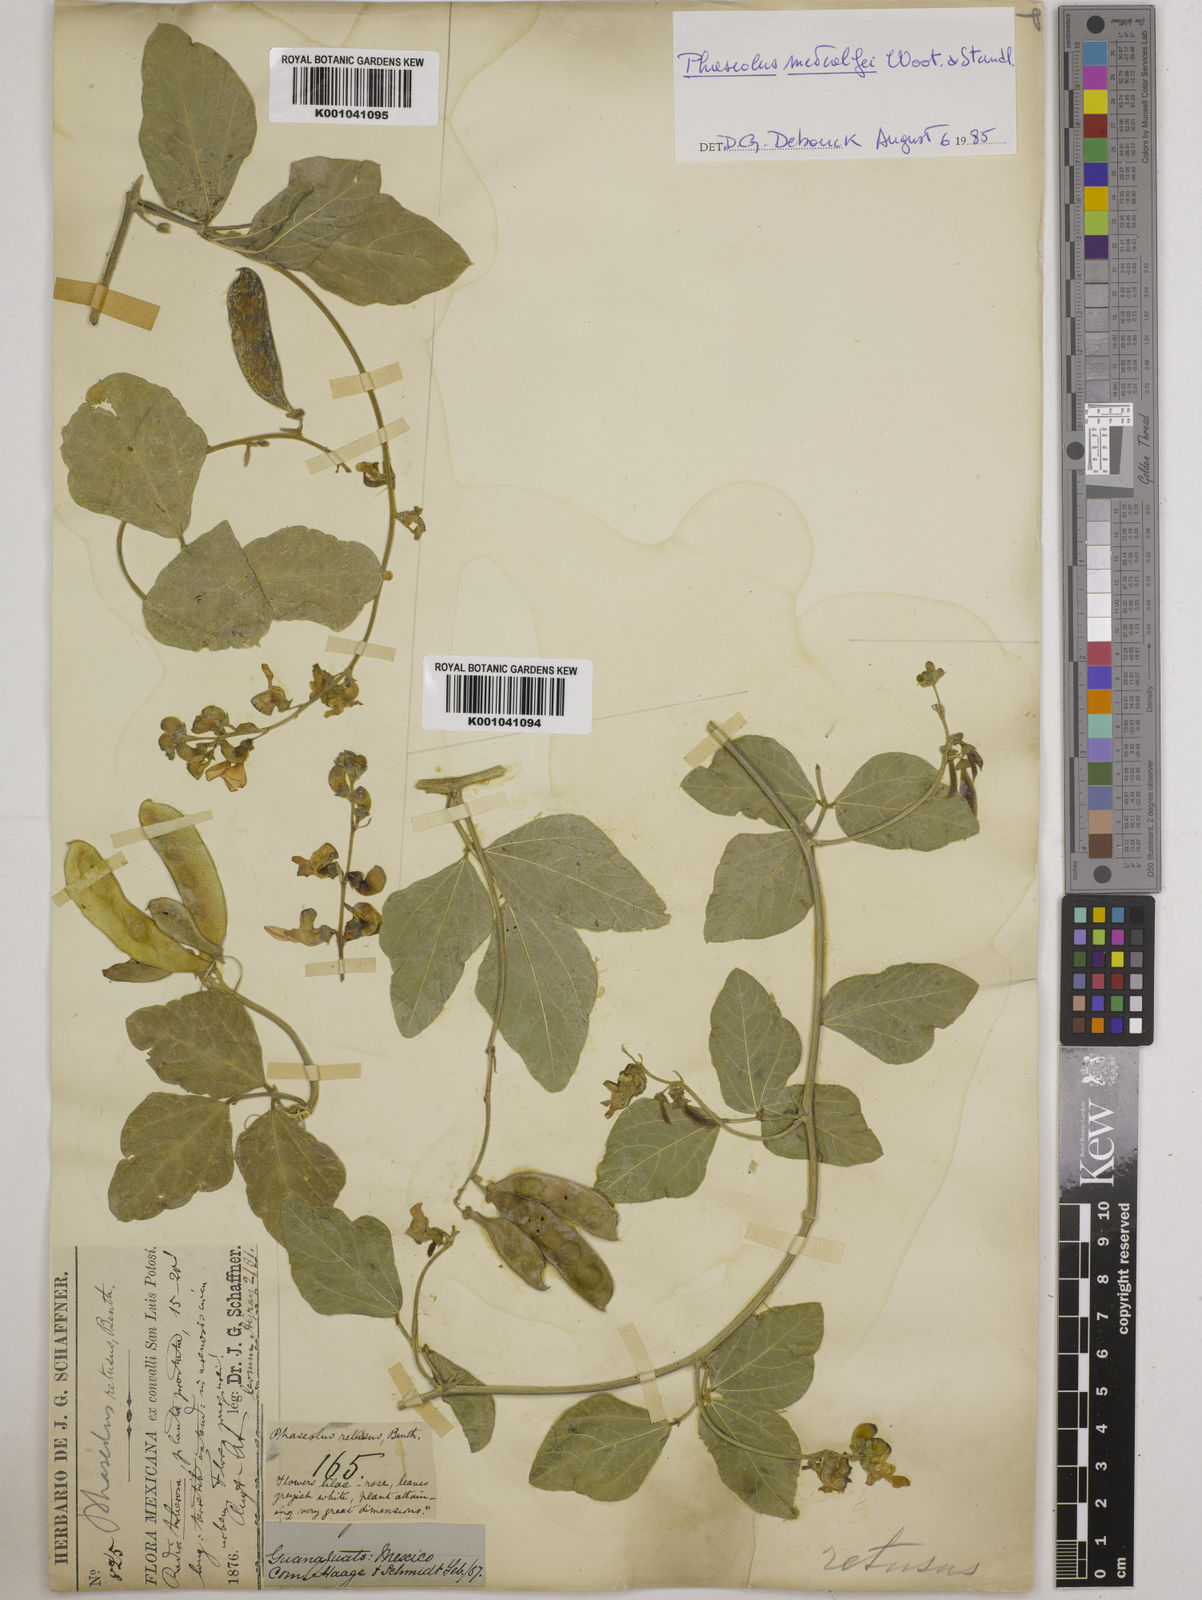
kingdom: Plantae
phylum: Tracheophyta
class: Magnoliopsida
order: Fabales
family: Fabaceae
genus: Phaseolus
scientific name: Phaseolus maculatus
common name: Metcalfe bean
